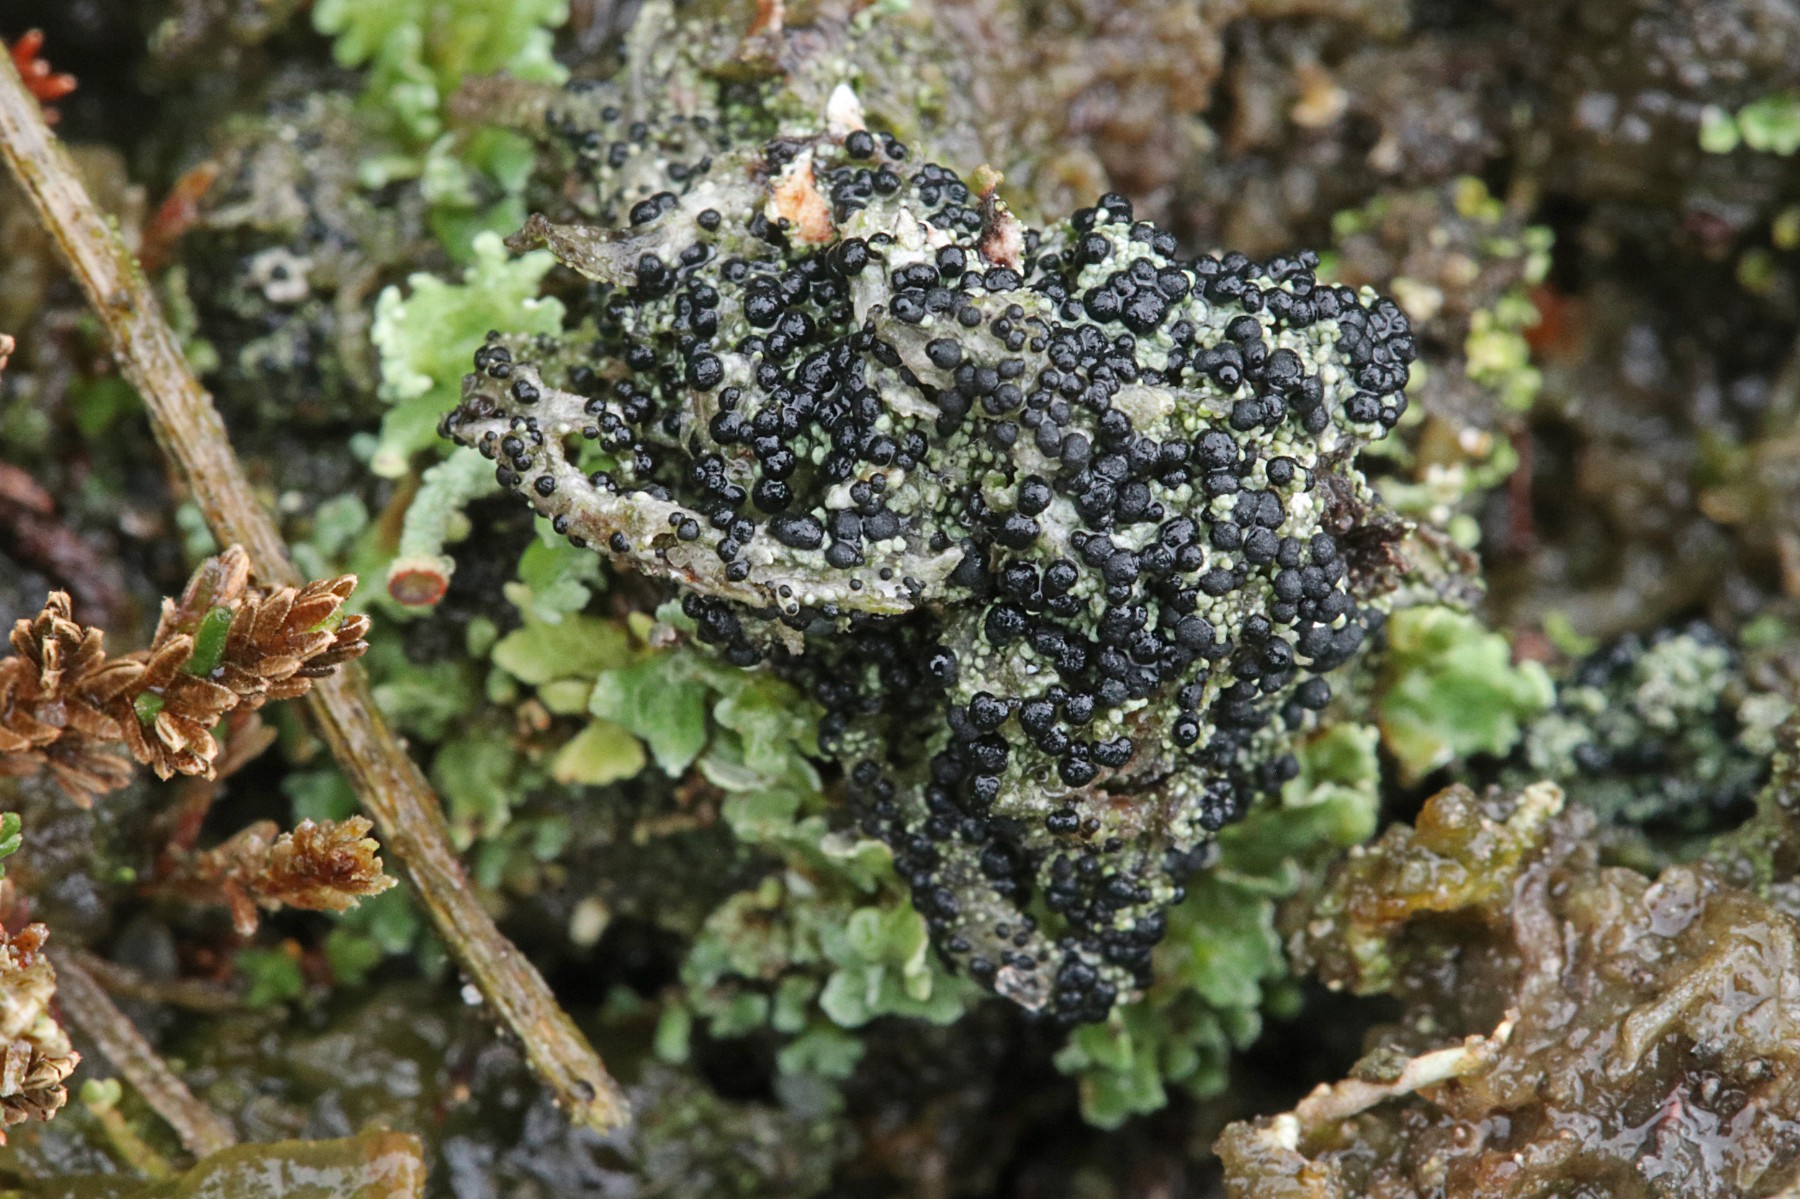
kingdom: Fungi
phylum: Ascomycota
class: Lecanoromycetes
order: Lecanorales
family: Byssolomataceae
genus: Micarea
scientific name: Micarea lignaria
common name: tørve-knaplav
